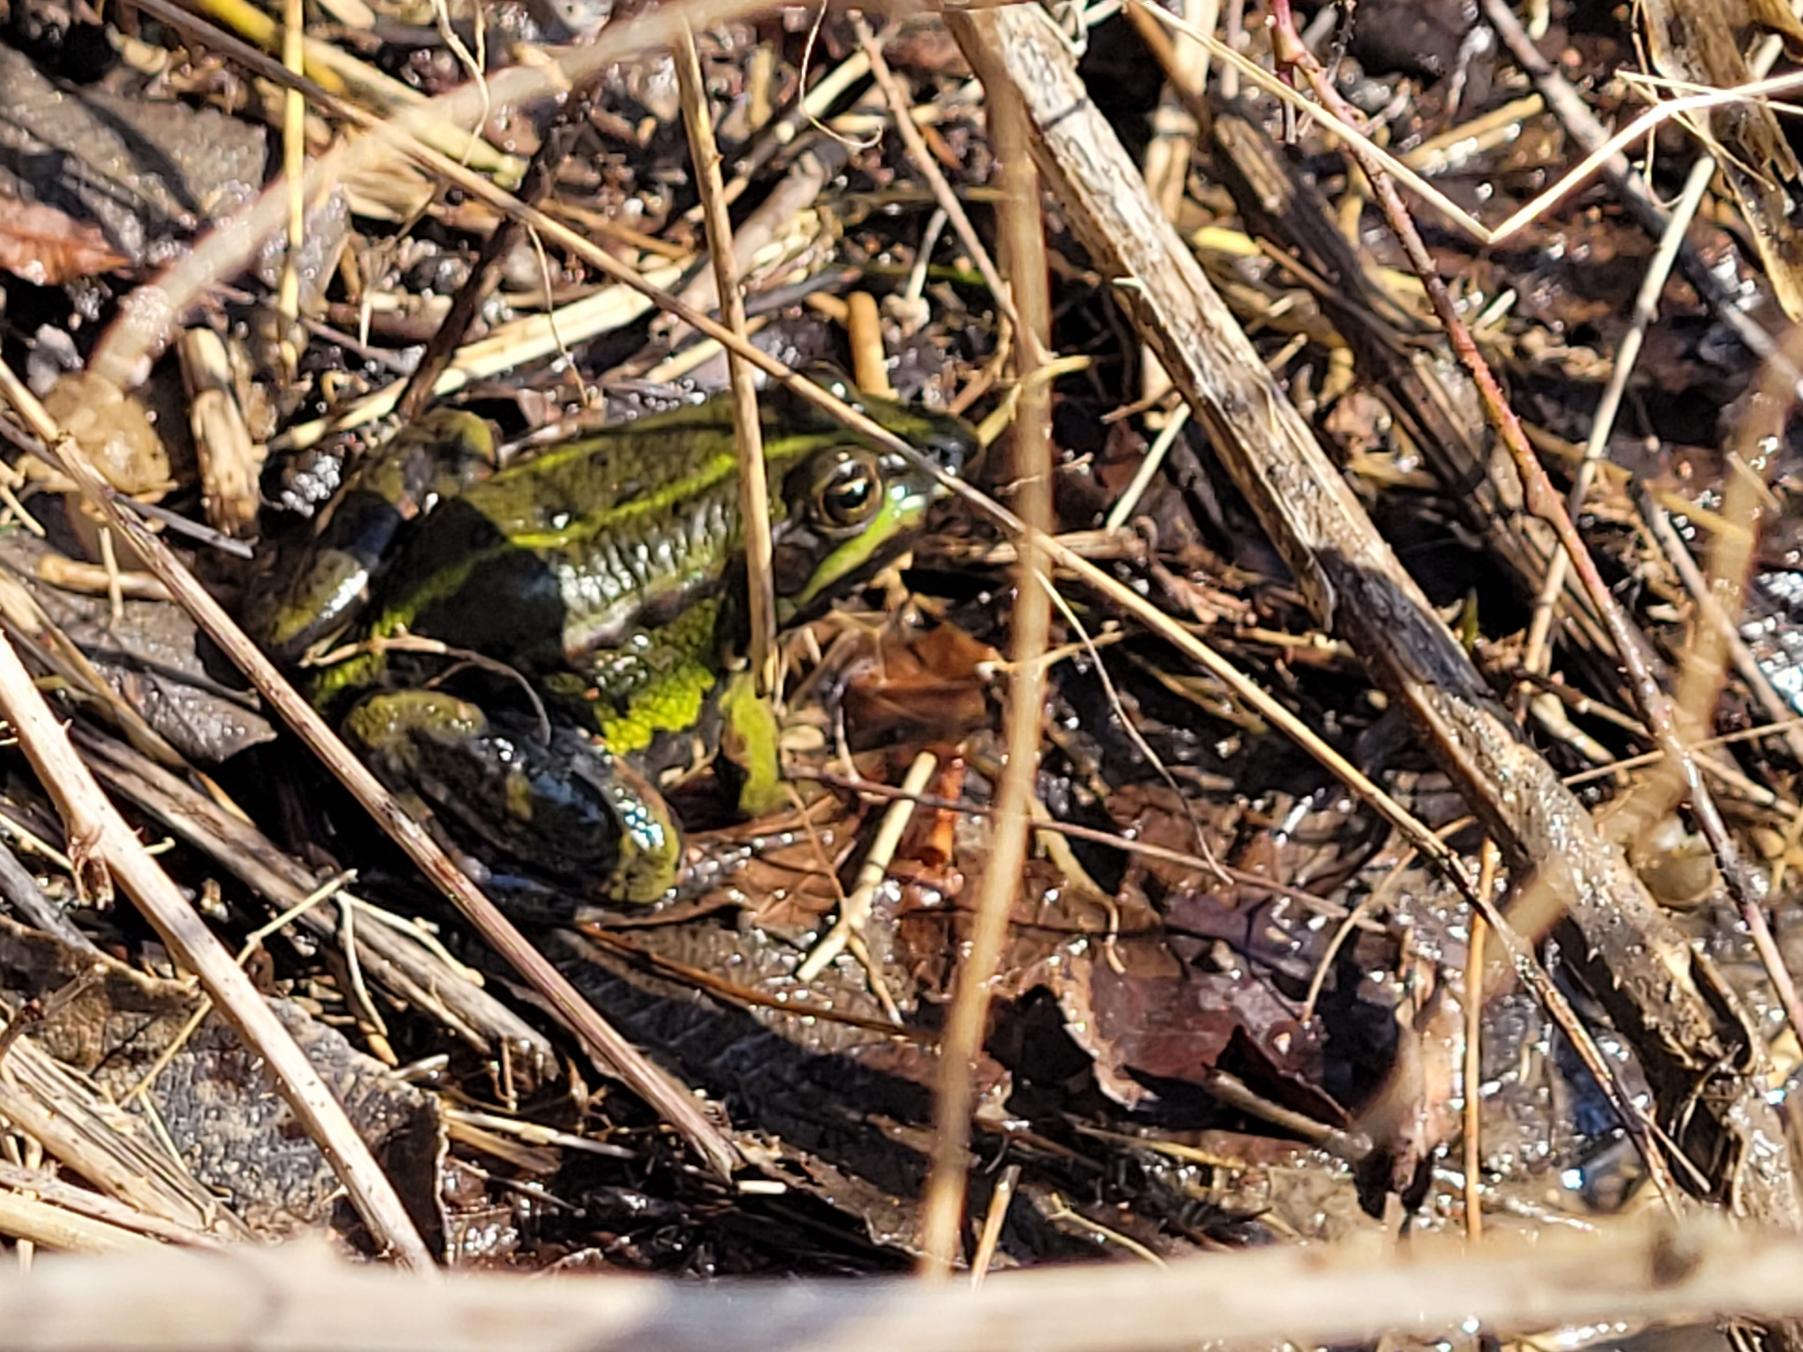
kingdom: Animalia
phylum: Chordata
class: Amphibia
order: Anura
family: Ranidae
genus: Pelophylax
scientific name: Pelophylax lessonae
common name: Grøn frø
